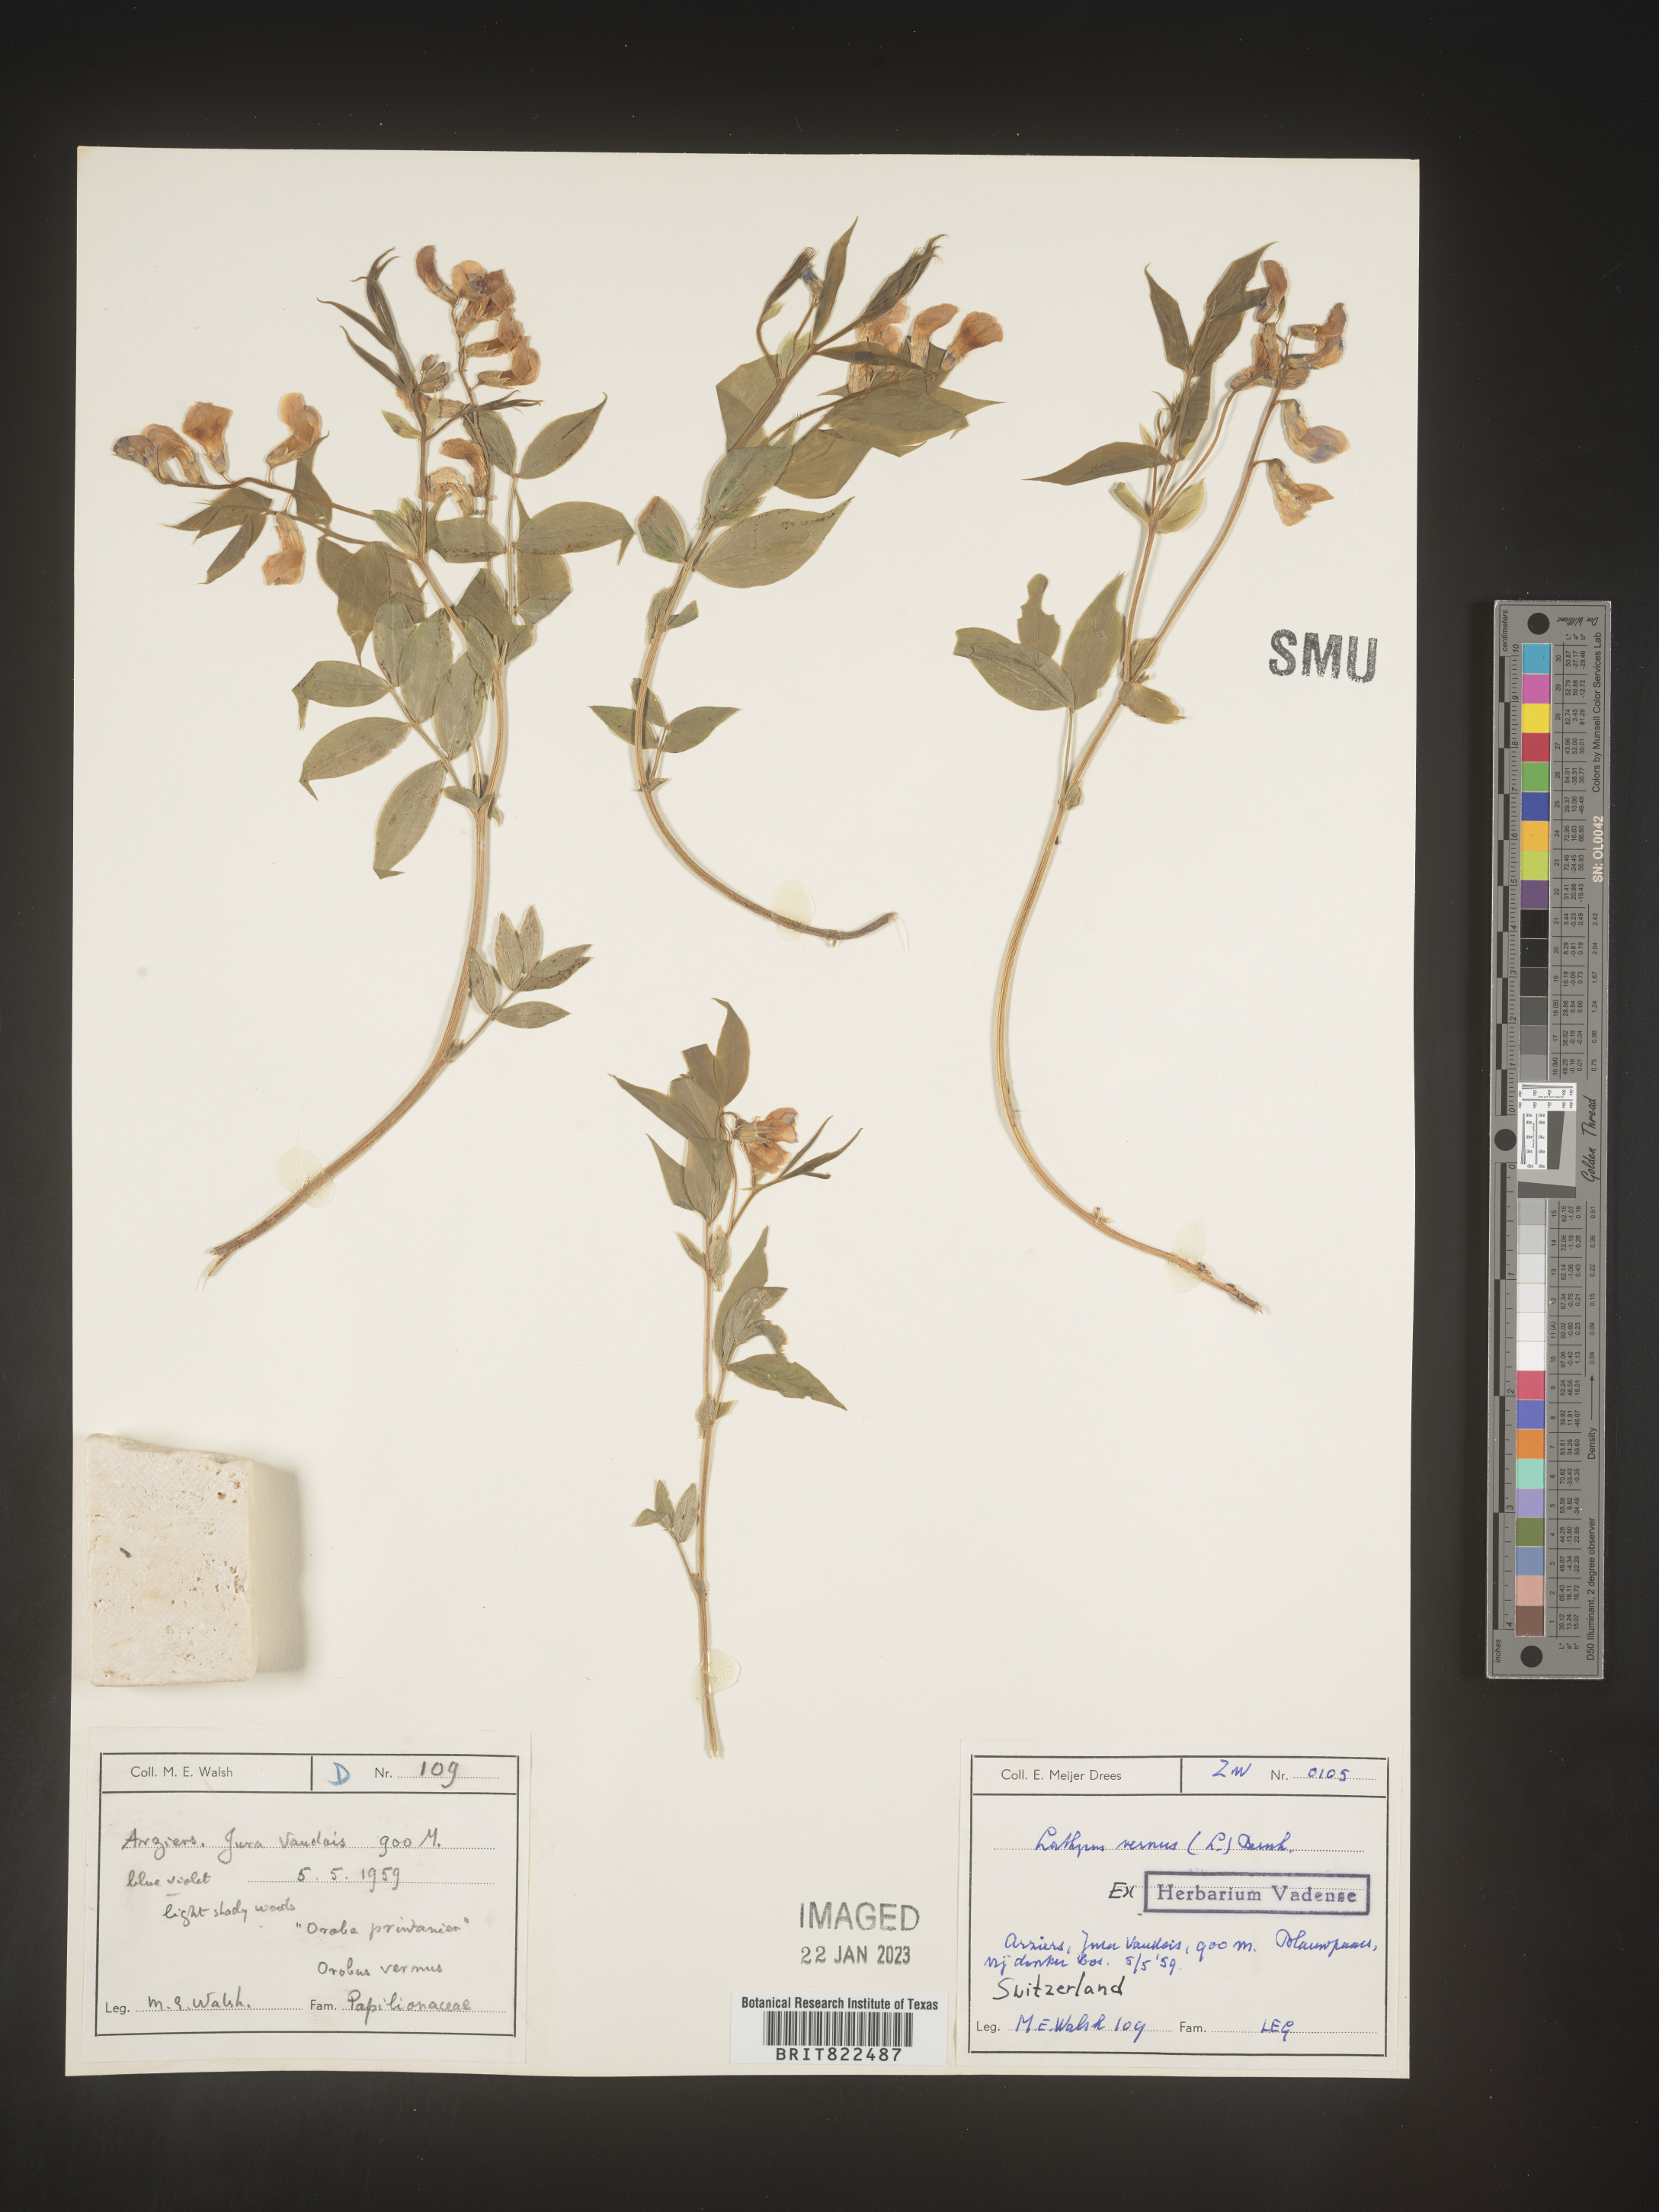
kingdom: Plantae
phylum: Tracheophyta
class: Magnoliopsida
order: Fabales
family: Fabaceae
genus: Lathyrus
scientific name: Lathyrus
